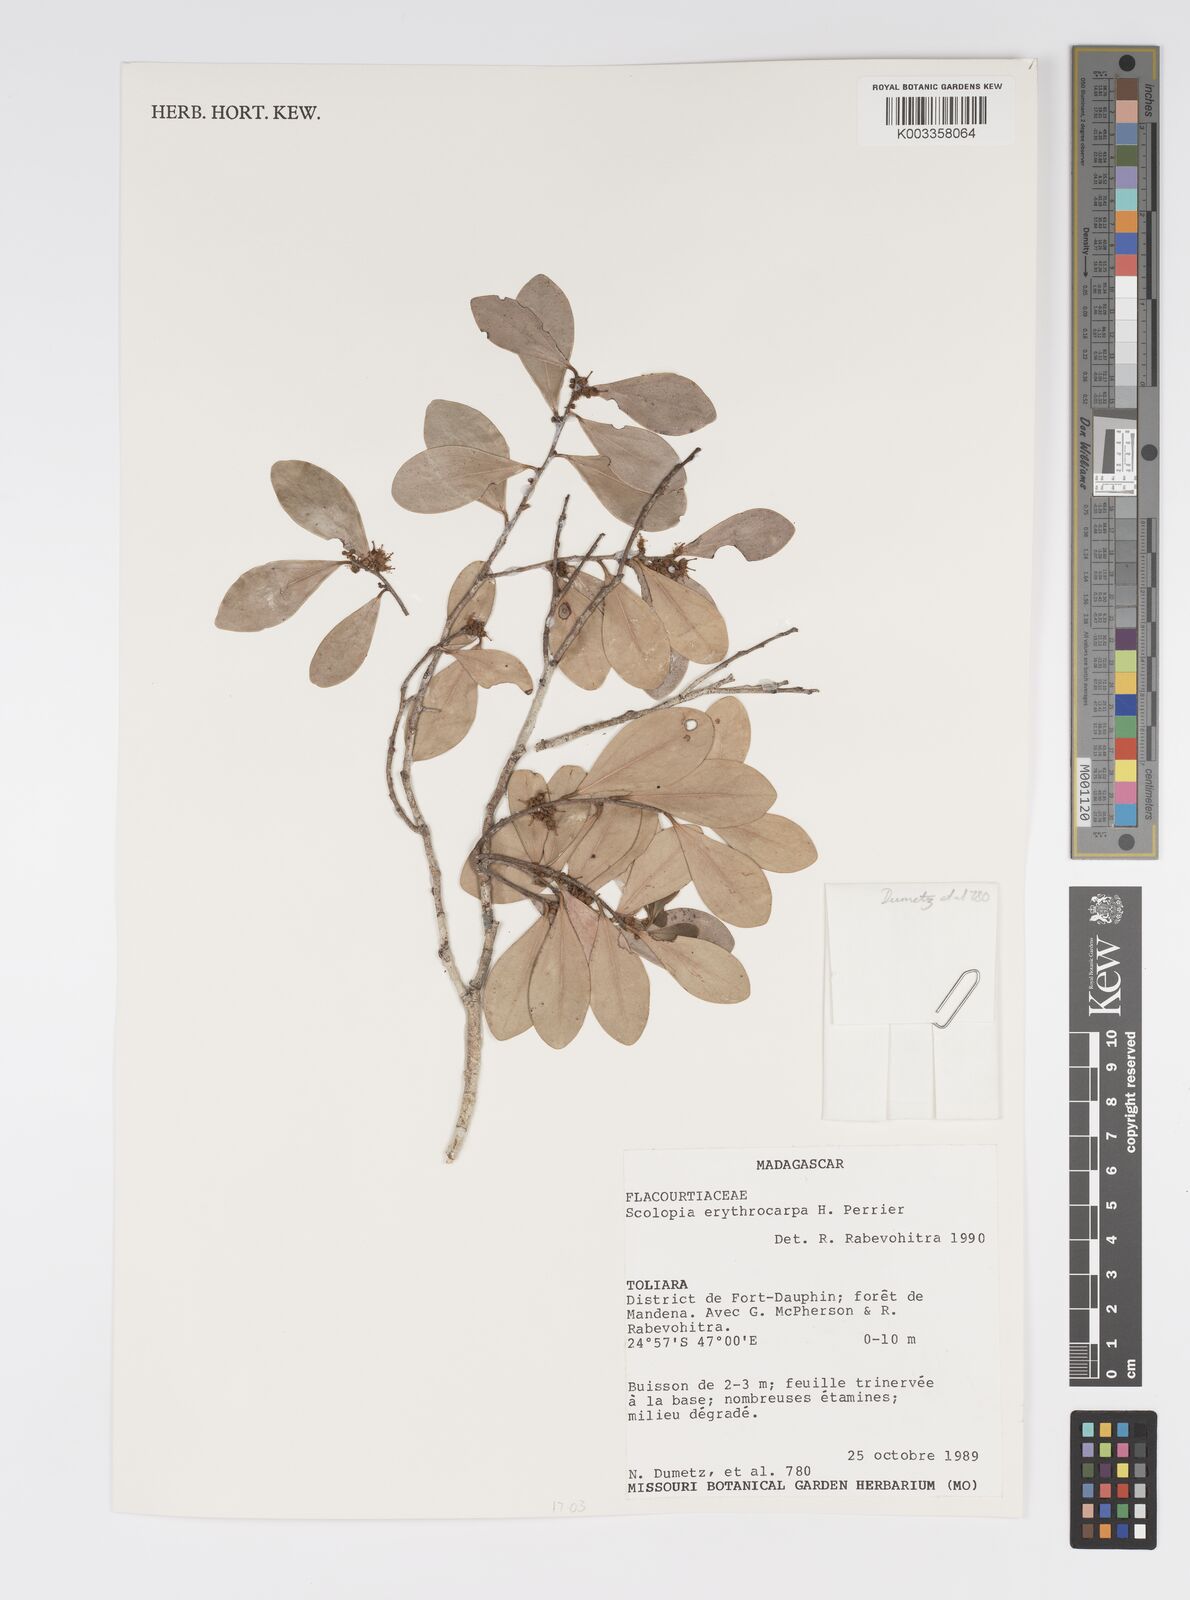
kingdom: Plantae
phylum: Tracheophyta
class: Magnoliopsida
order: Malpighiales
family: Salicaceae
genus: Scolopia
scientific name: Scolopia erythrocarpa
